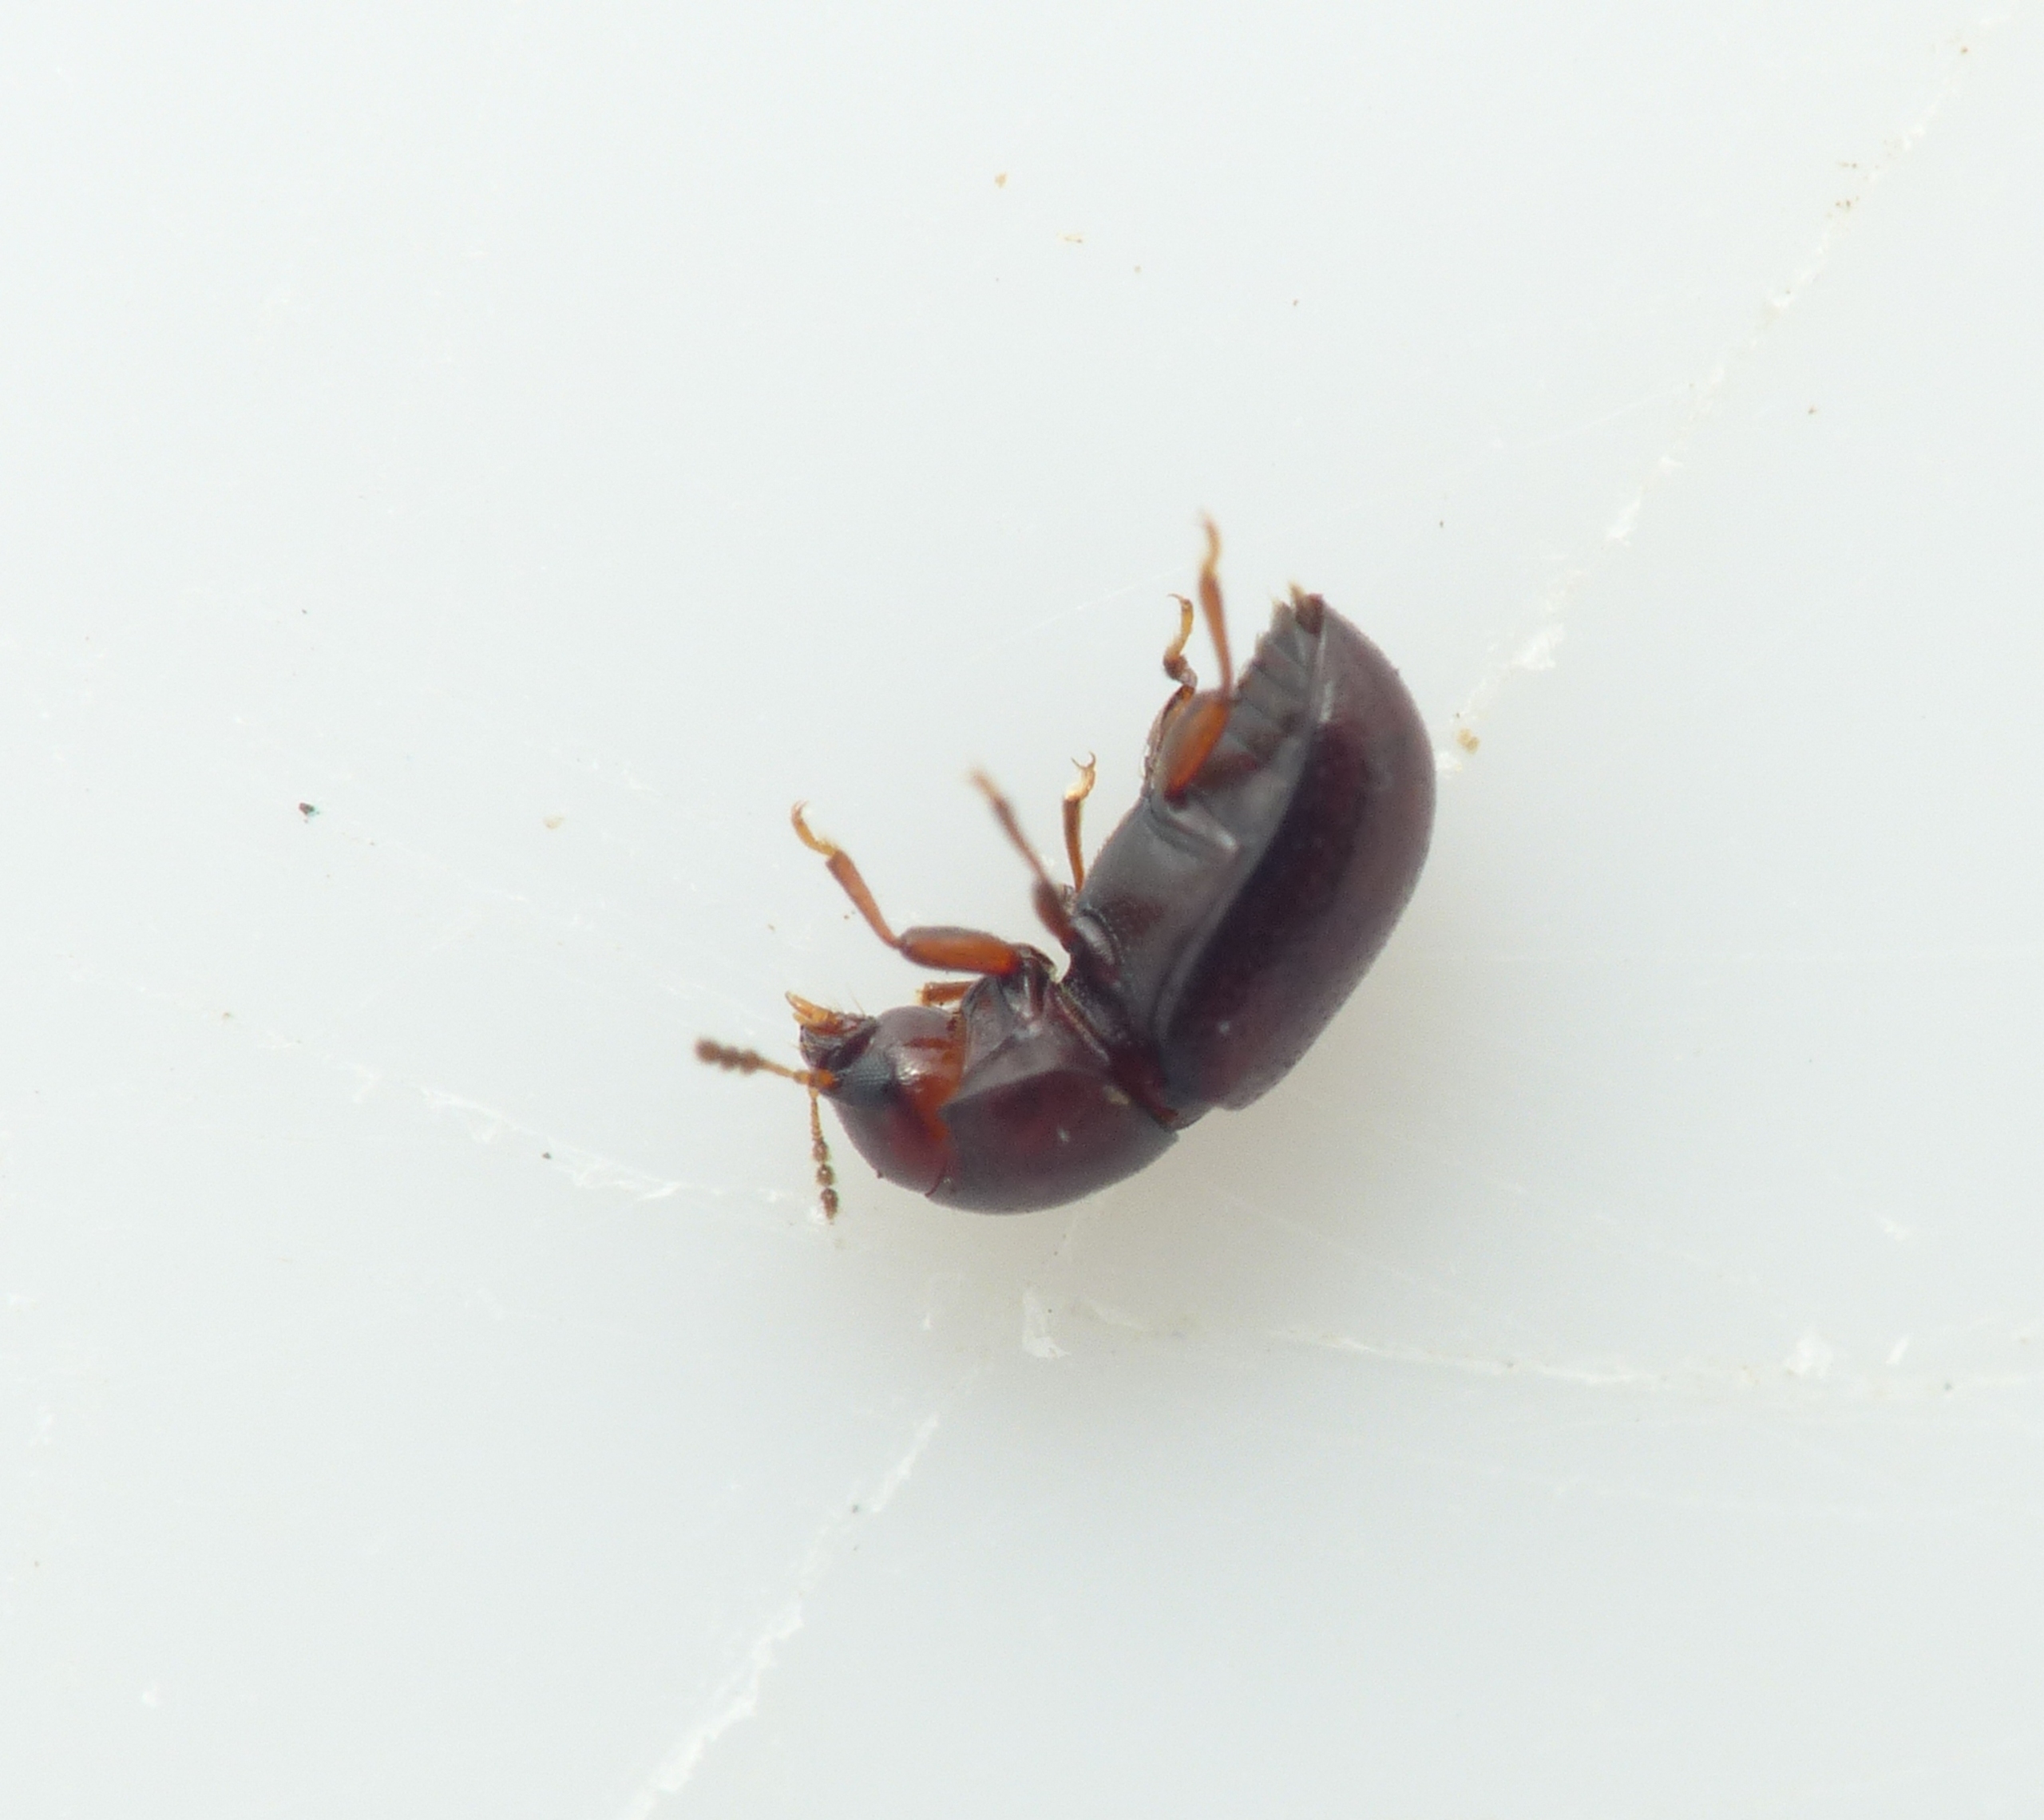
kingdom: Animalia
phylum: Arthropoda
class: Insecta
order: Coleoptera
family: Ciidae
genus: Cis
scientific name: Cis castaneus
